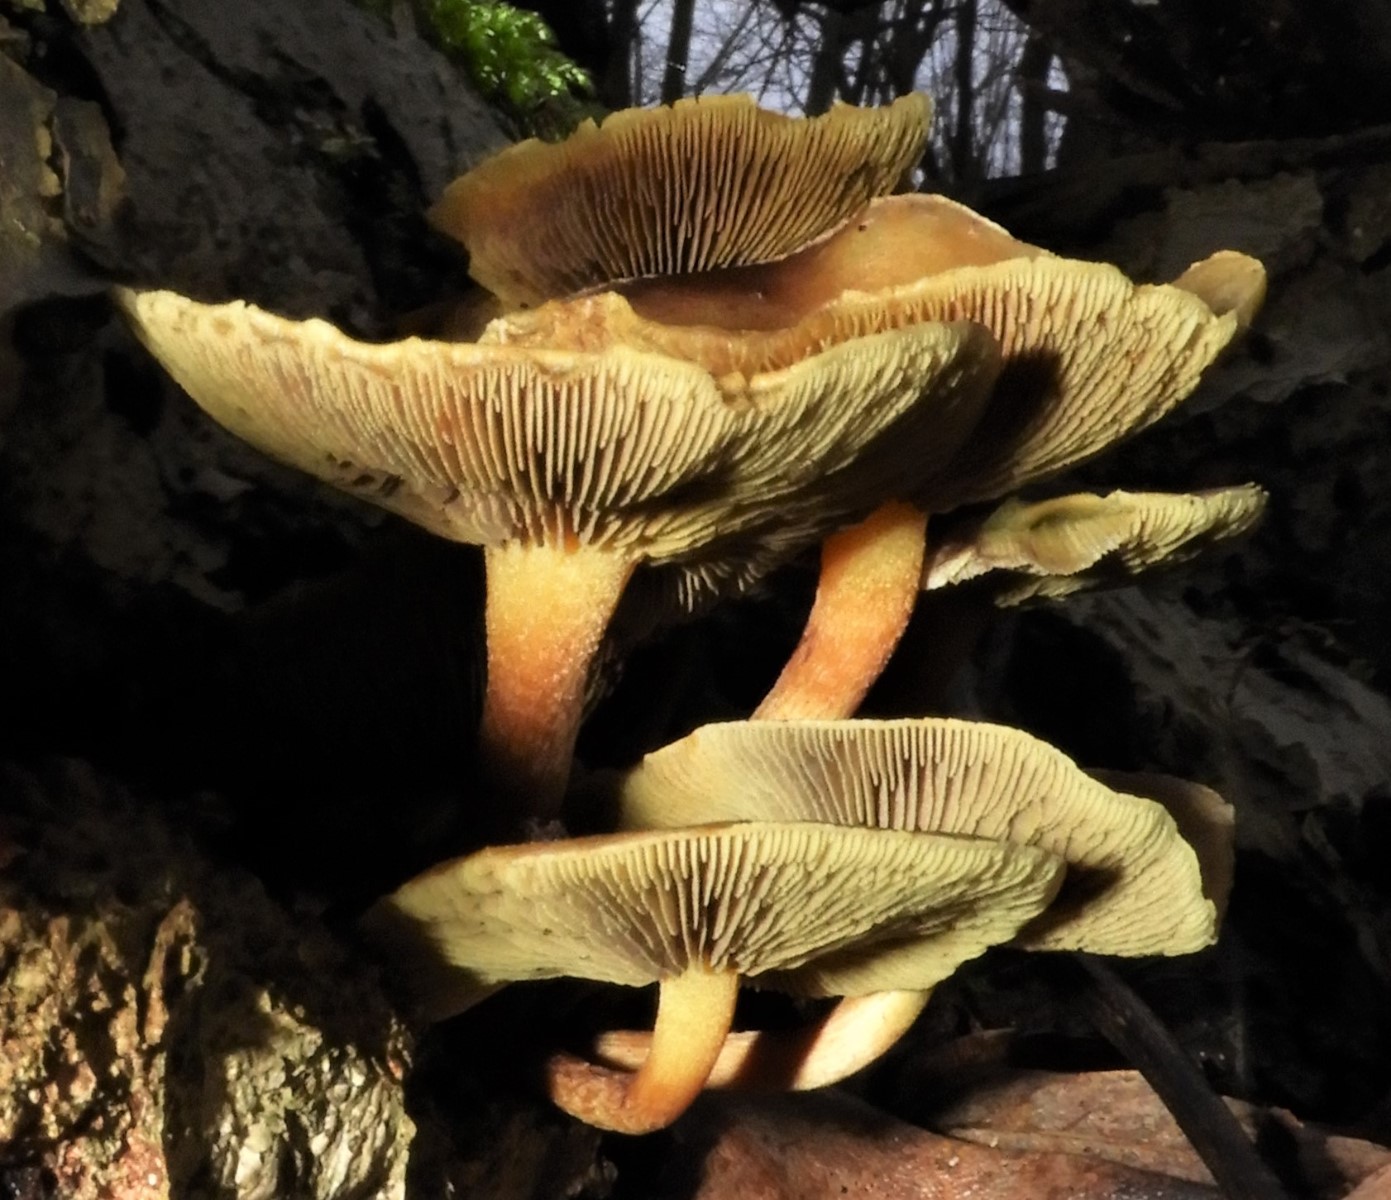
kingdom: Fungi
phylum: Basidiomycota
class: Agaricomycetes
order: Agaricales
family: Strophariaceae
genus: Hypholoma
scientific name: Hypholoma
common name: svovlhat
